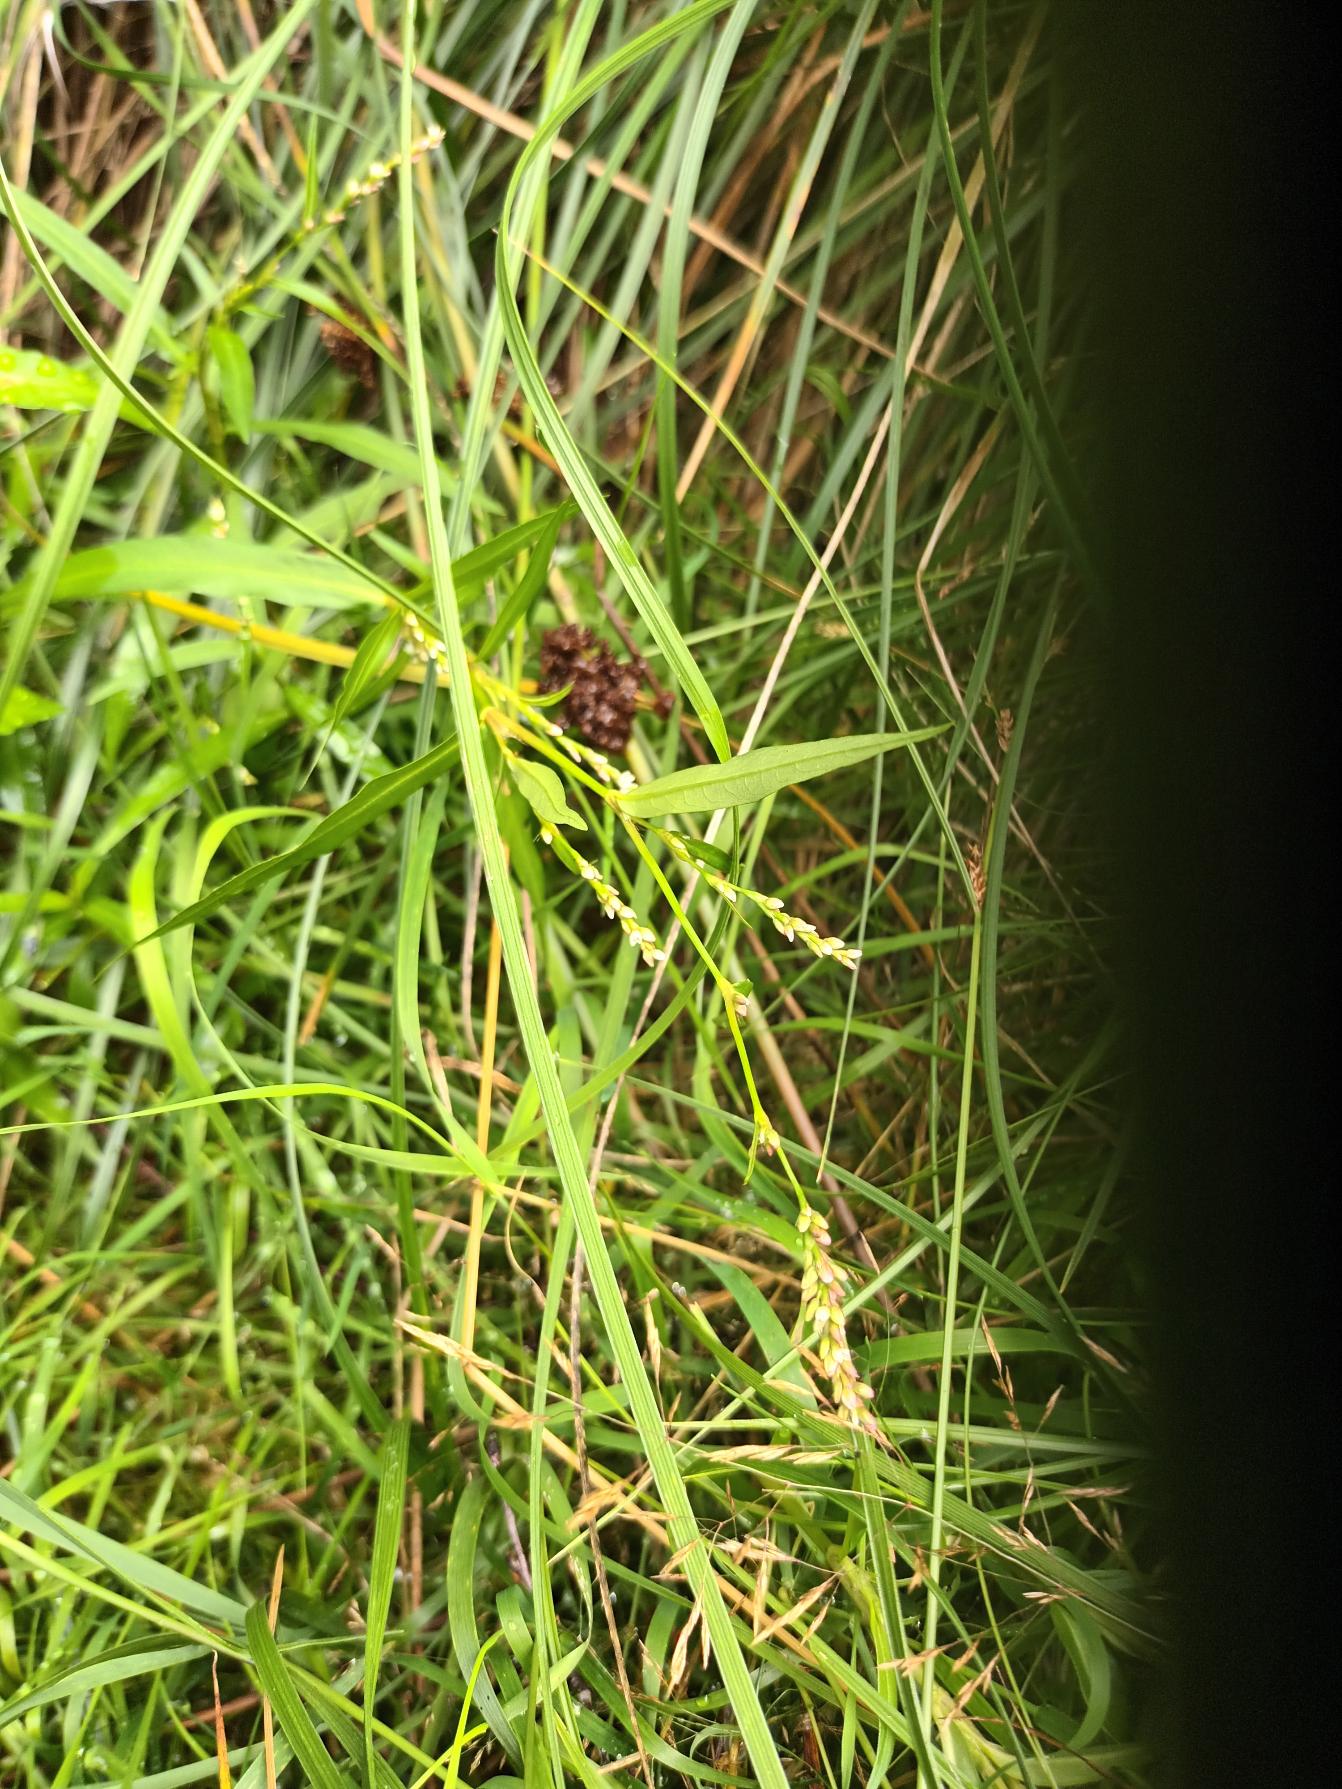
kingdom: Plantae
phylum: Tracheophyta
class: Magnoliopsida
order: Caryophyllales
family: Polygonaceae
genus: Persicaria
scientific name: Persicaria hydropiper
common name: Bidende pileurt
